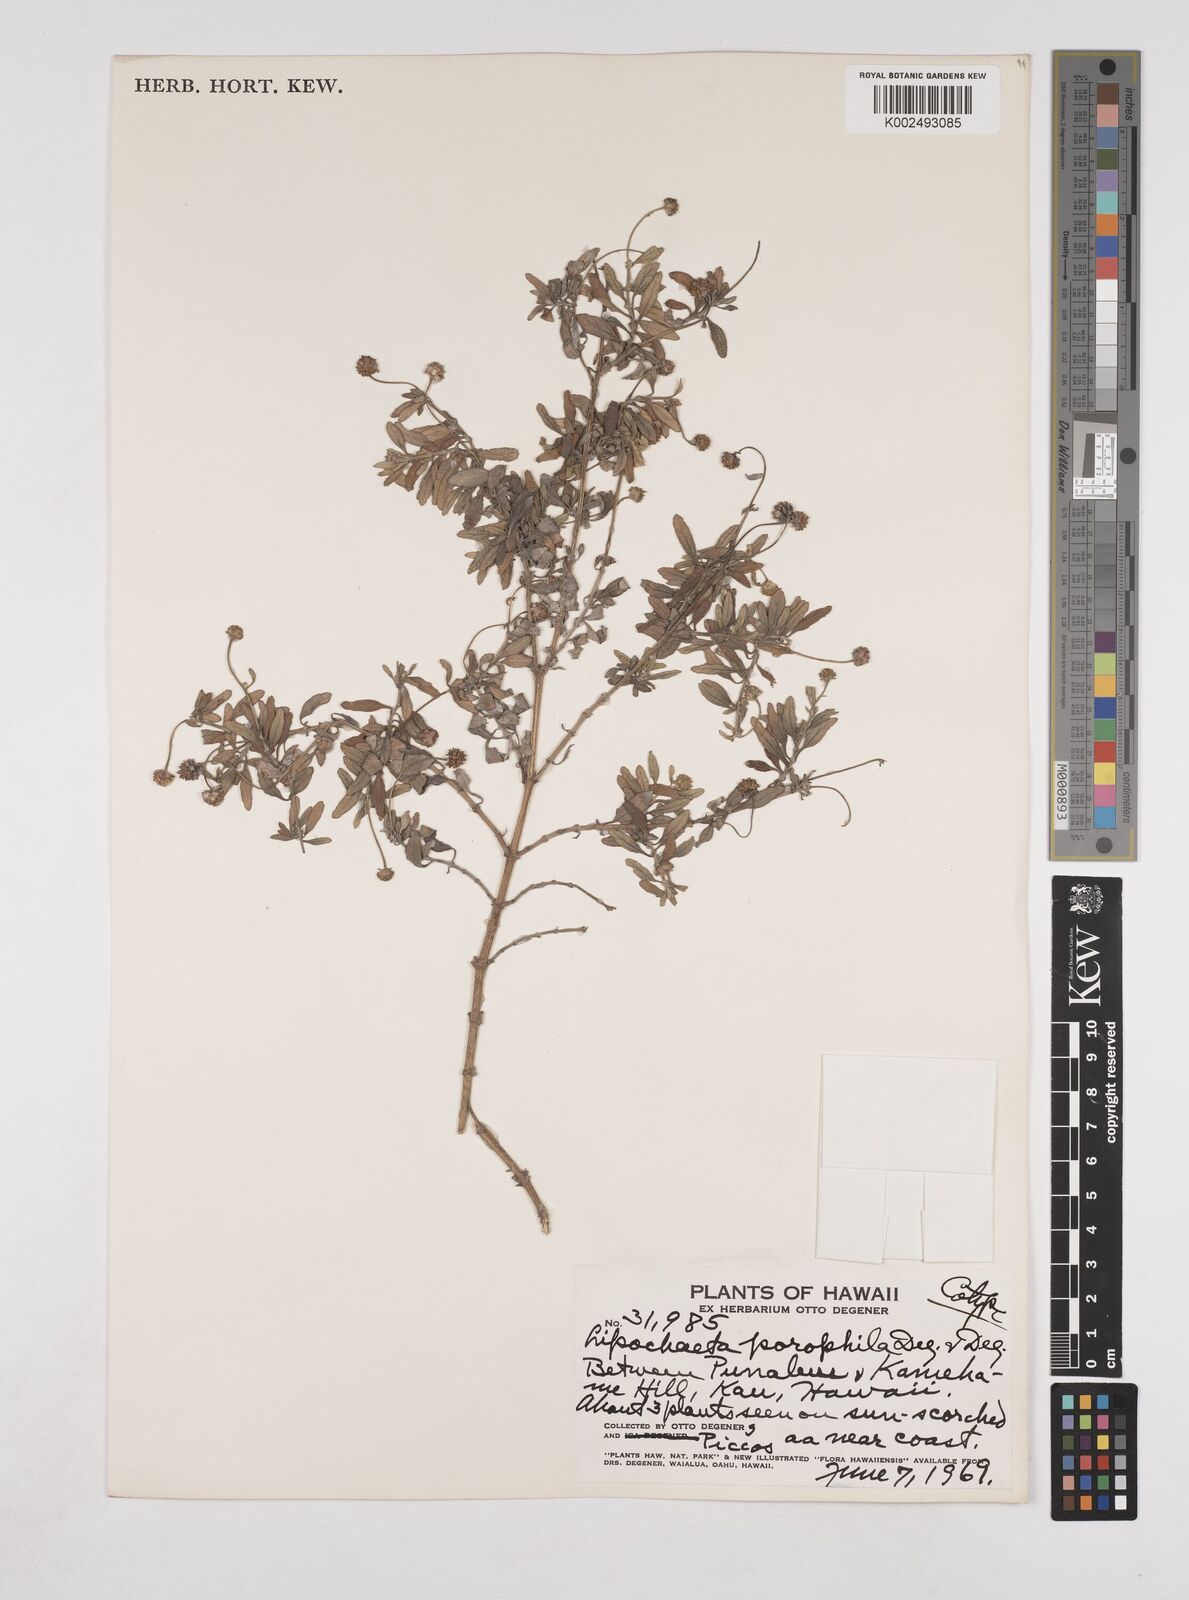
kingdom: Plantae
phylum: Tracheophyta
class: Magnoliopsida
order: Asterales
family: Asteraceae
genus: Lipochaeta
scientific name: Lipochaeta integrifolia
